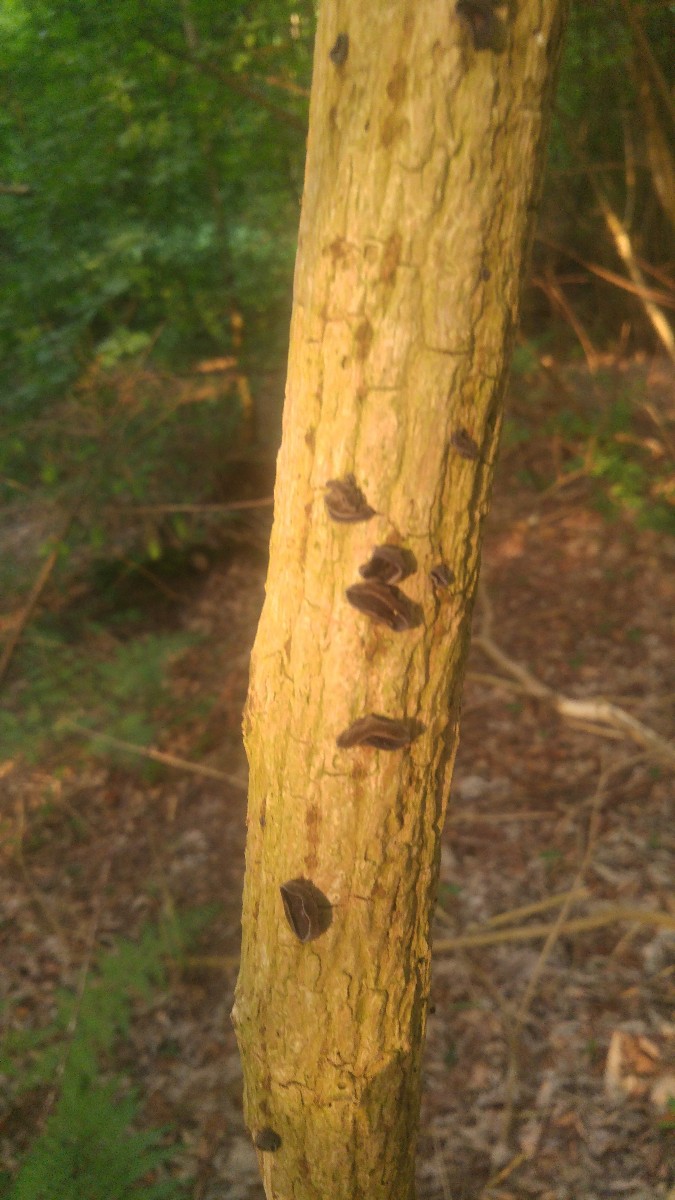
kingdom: Fungi
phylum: Basidiomycota
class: Agaricomycetes
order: Auriculariales
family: Auriculariaceae
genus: Auricularia
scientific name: Auricularia auricula-judae
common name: almindelig judasøre
